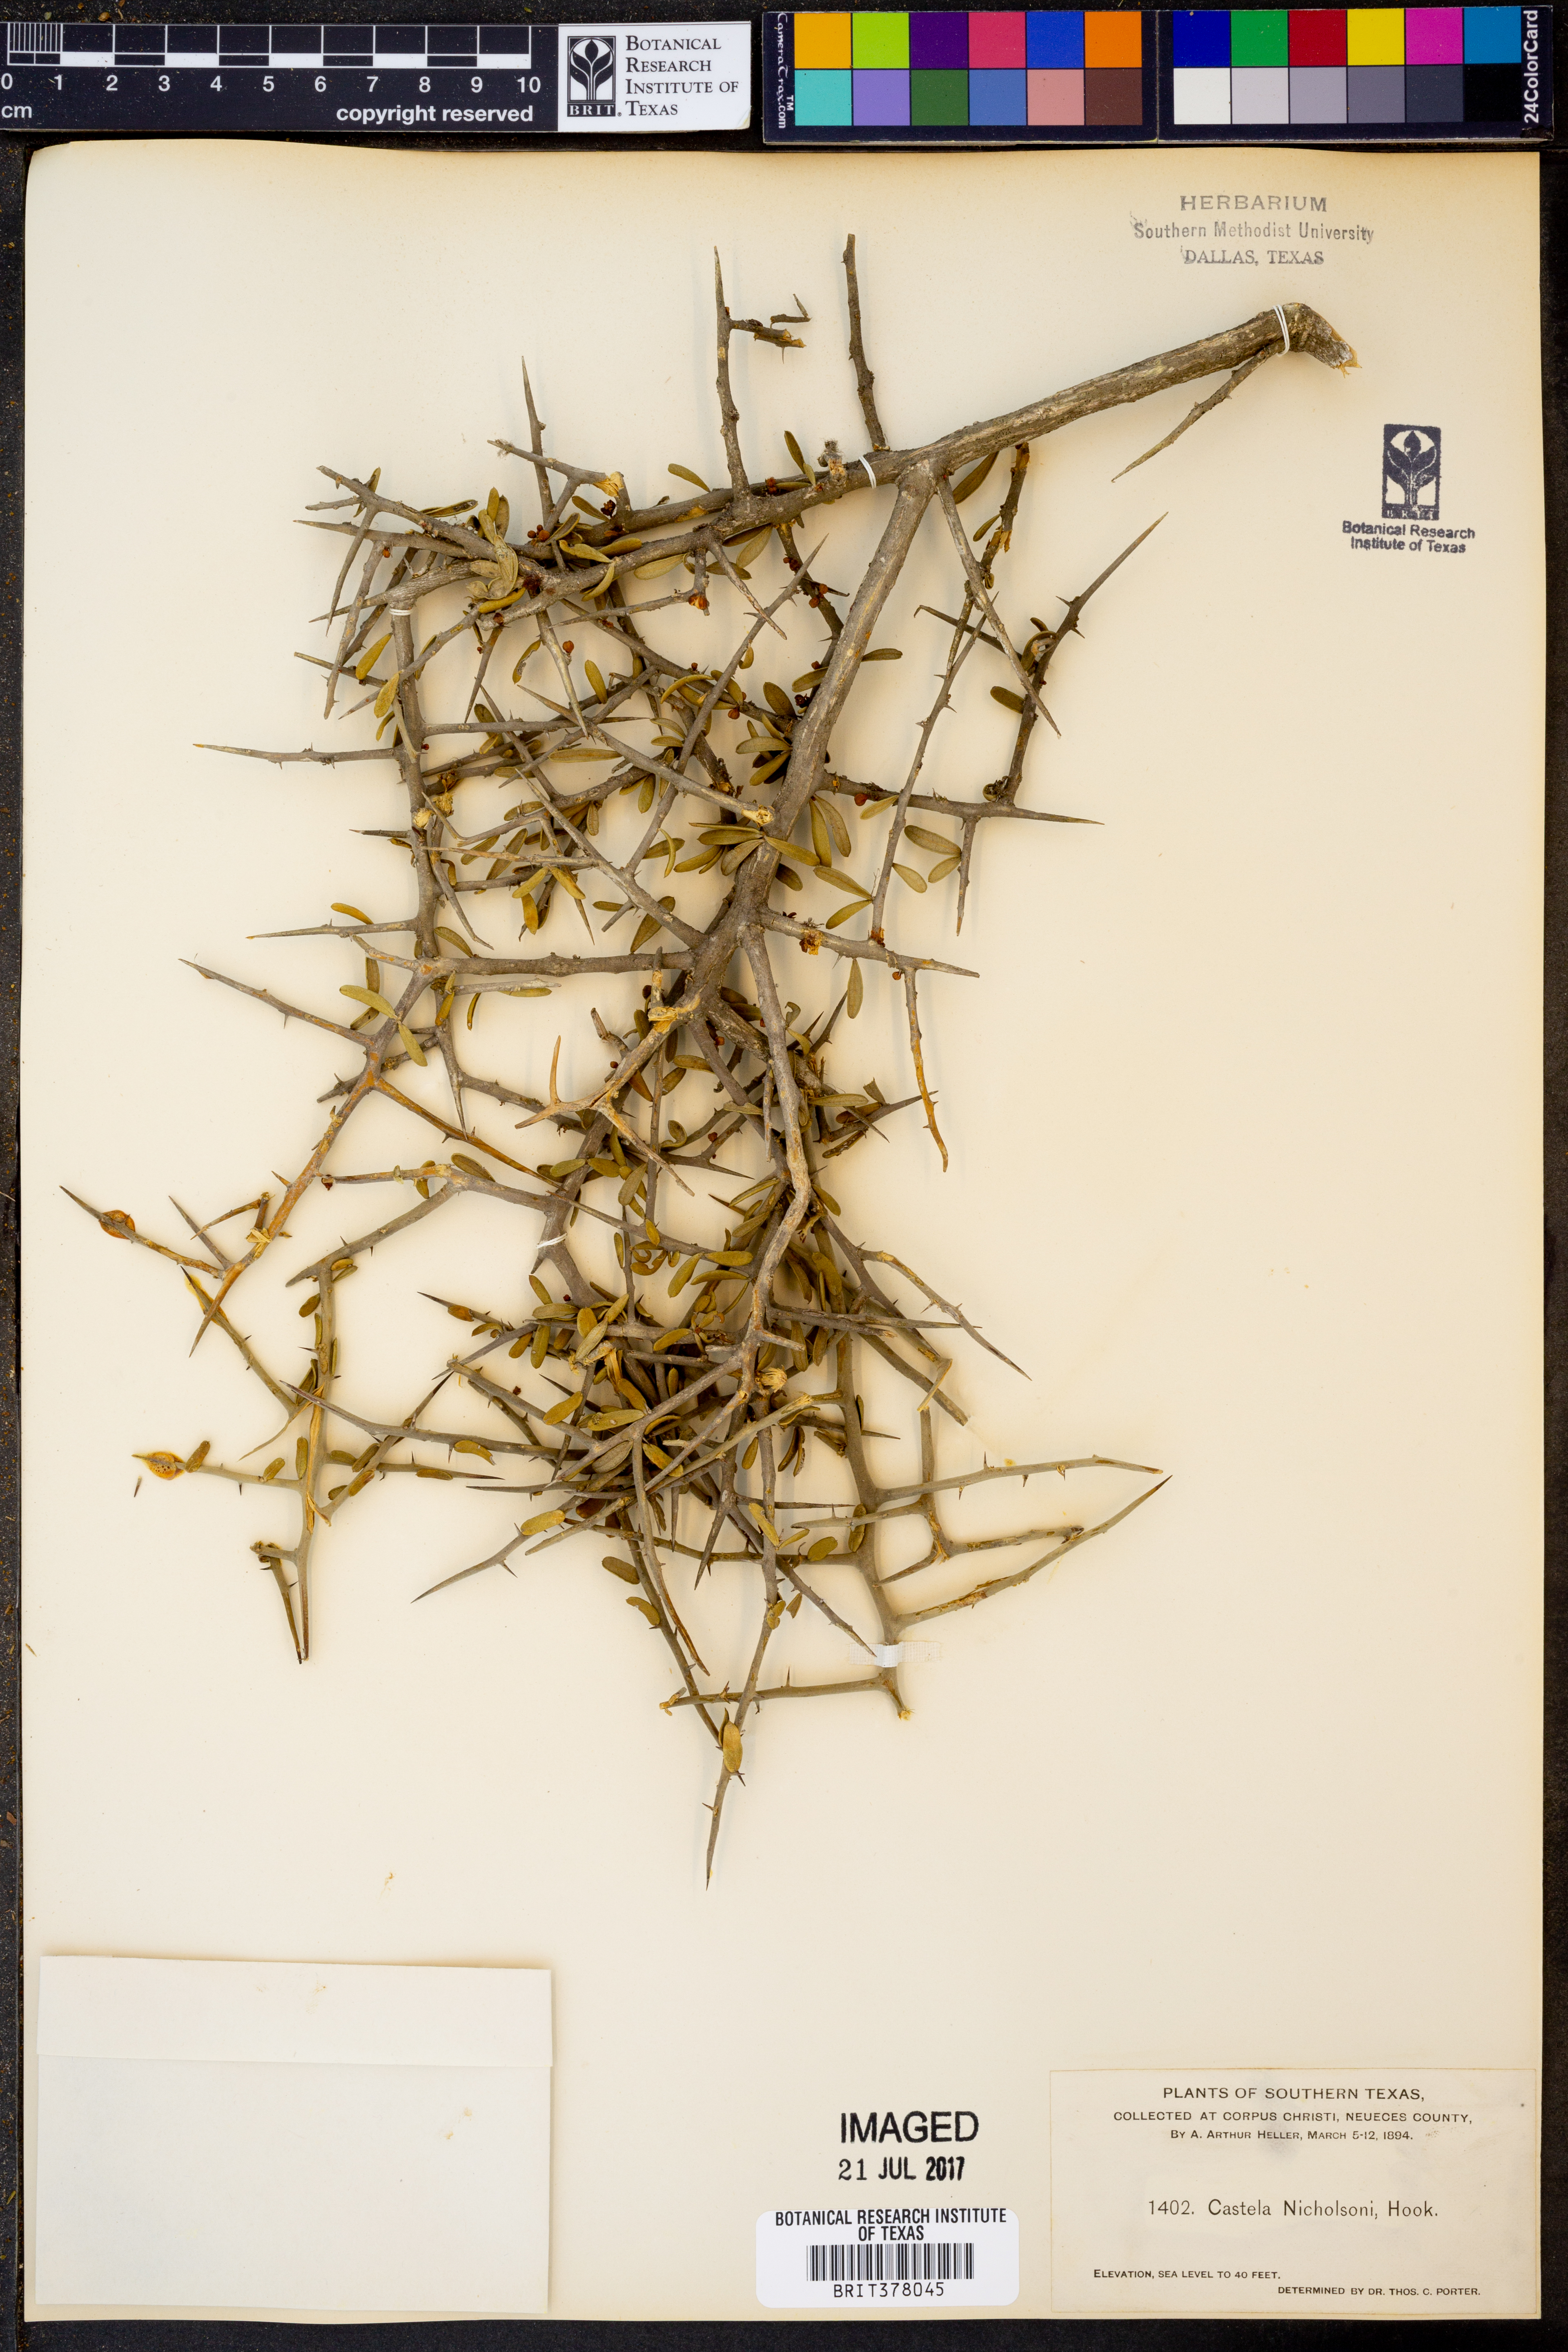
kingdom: Plantae
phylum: Tracheophyta
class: Magnoliopsida
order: Sapindales
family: Simaroubaceae
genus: Castela
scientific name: Castela erecta
